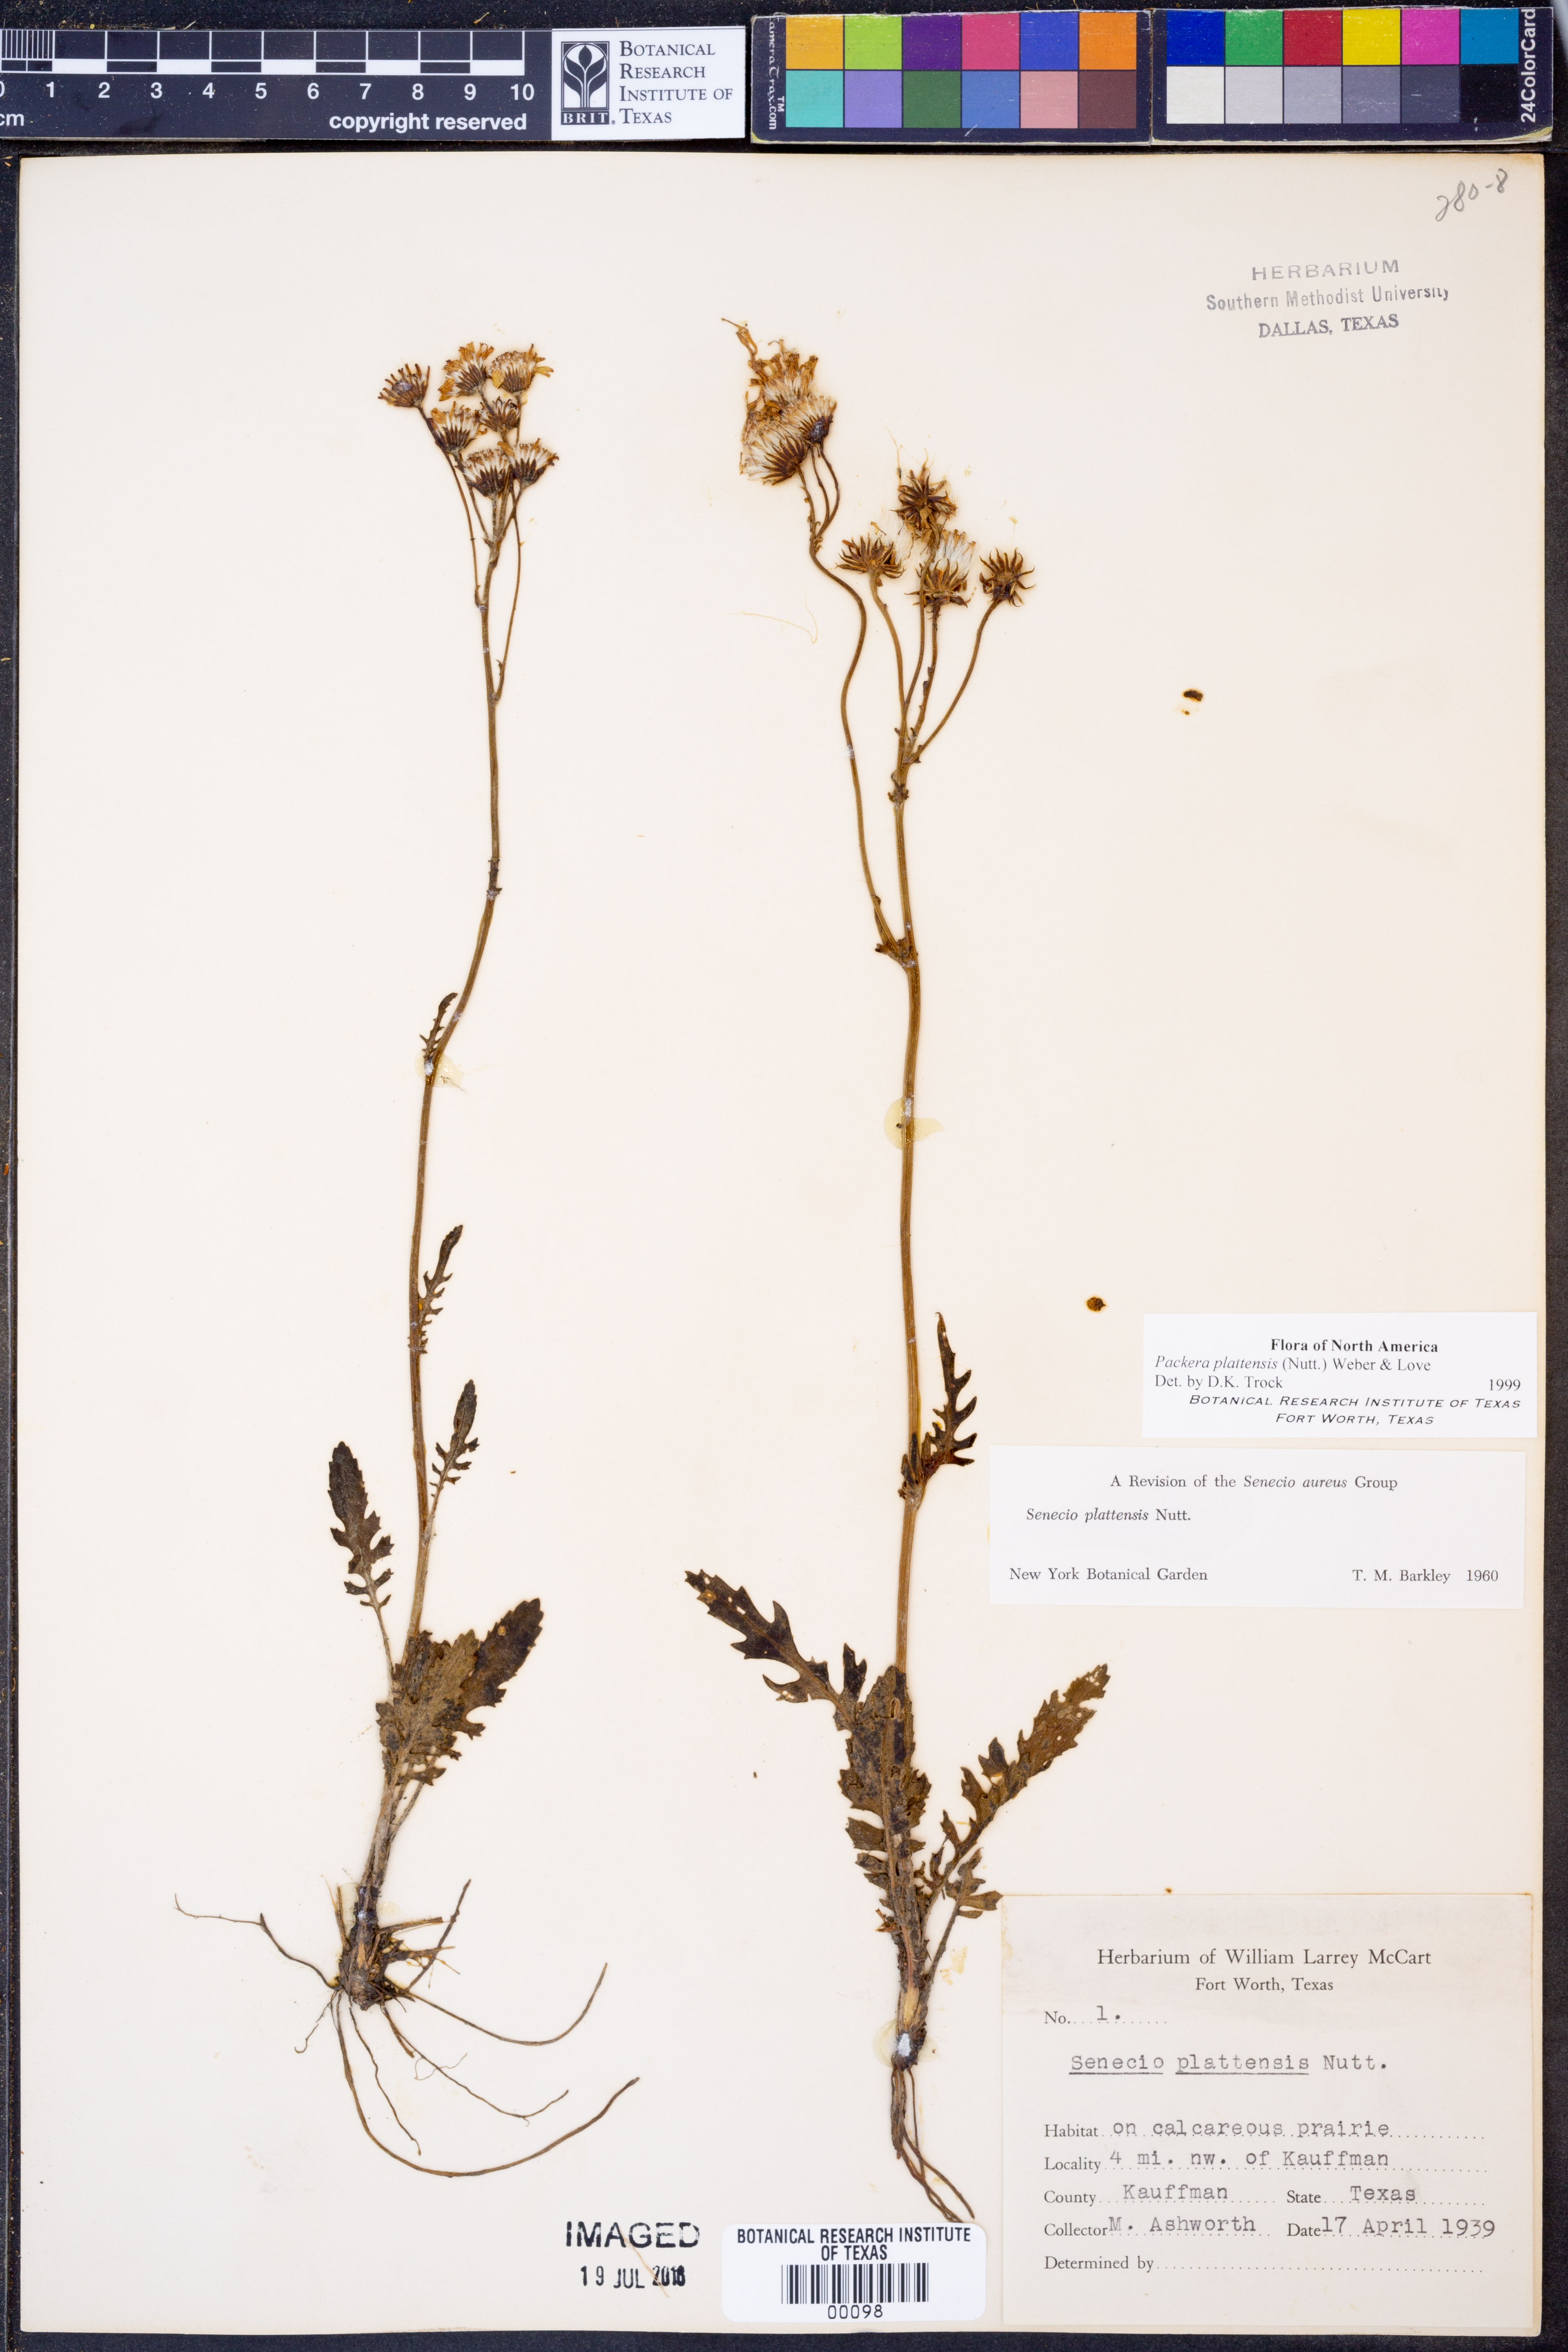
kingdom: Plantae
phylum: Tracheophyta
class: Magnoliopsida
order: Asterales
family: Asteraceae
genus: Packera
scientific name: Packera plattensis
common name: Prairie groundsel
